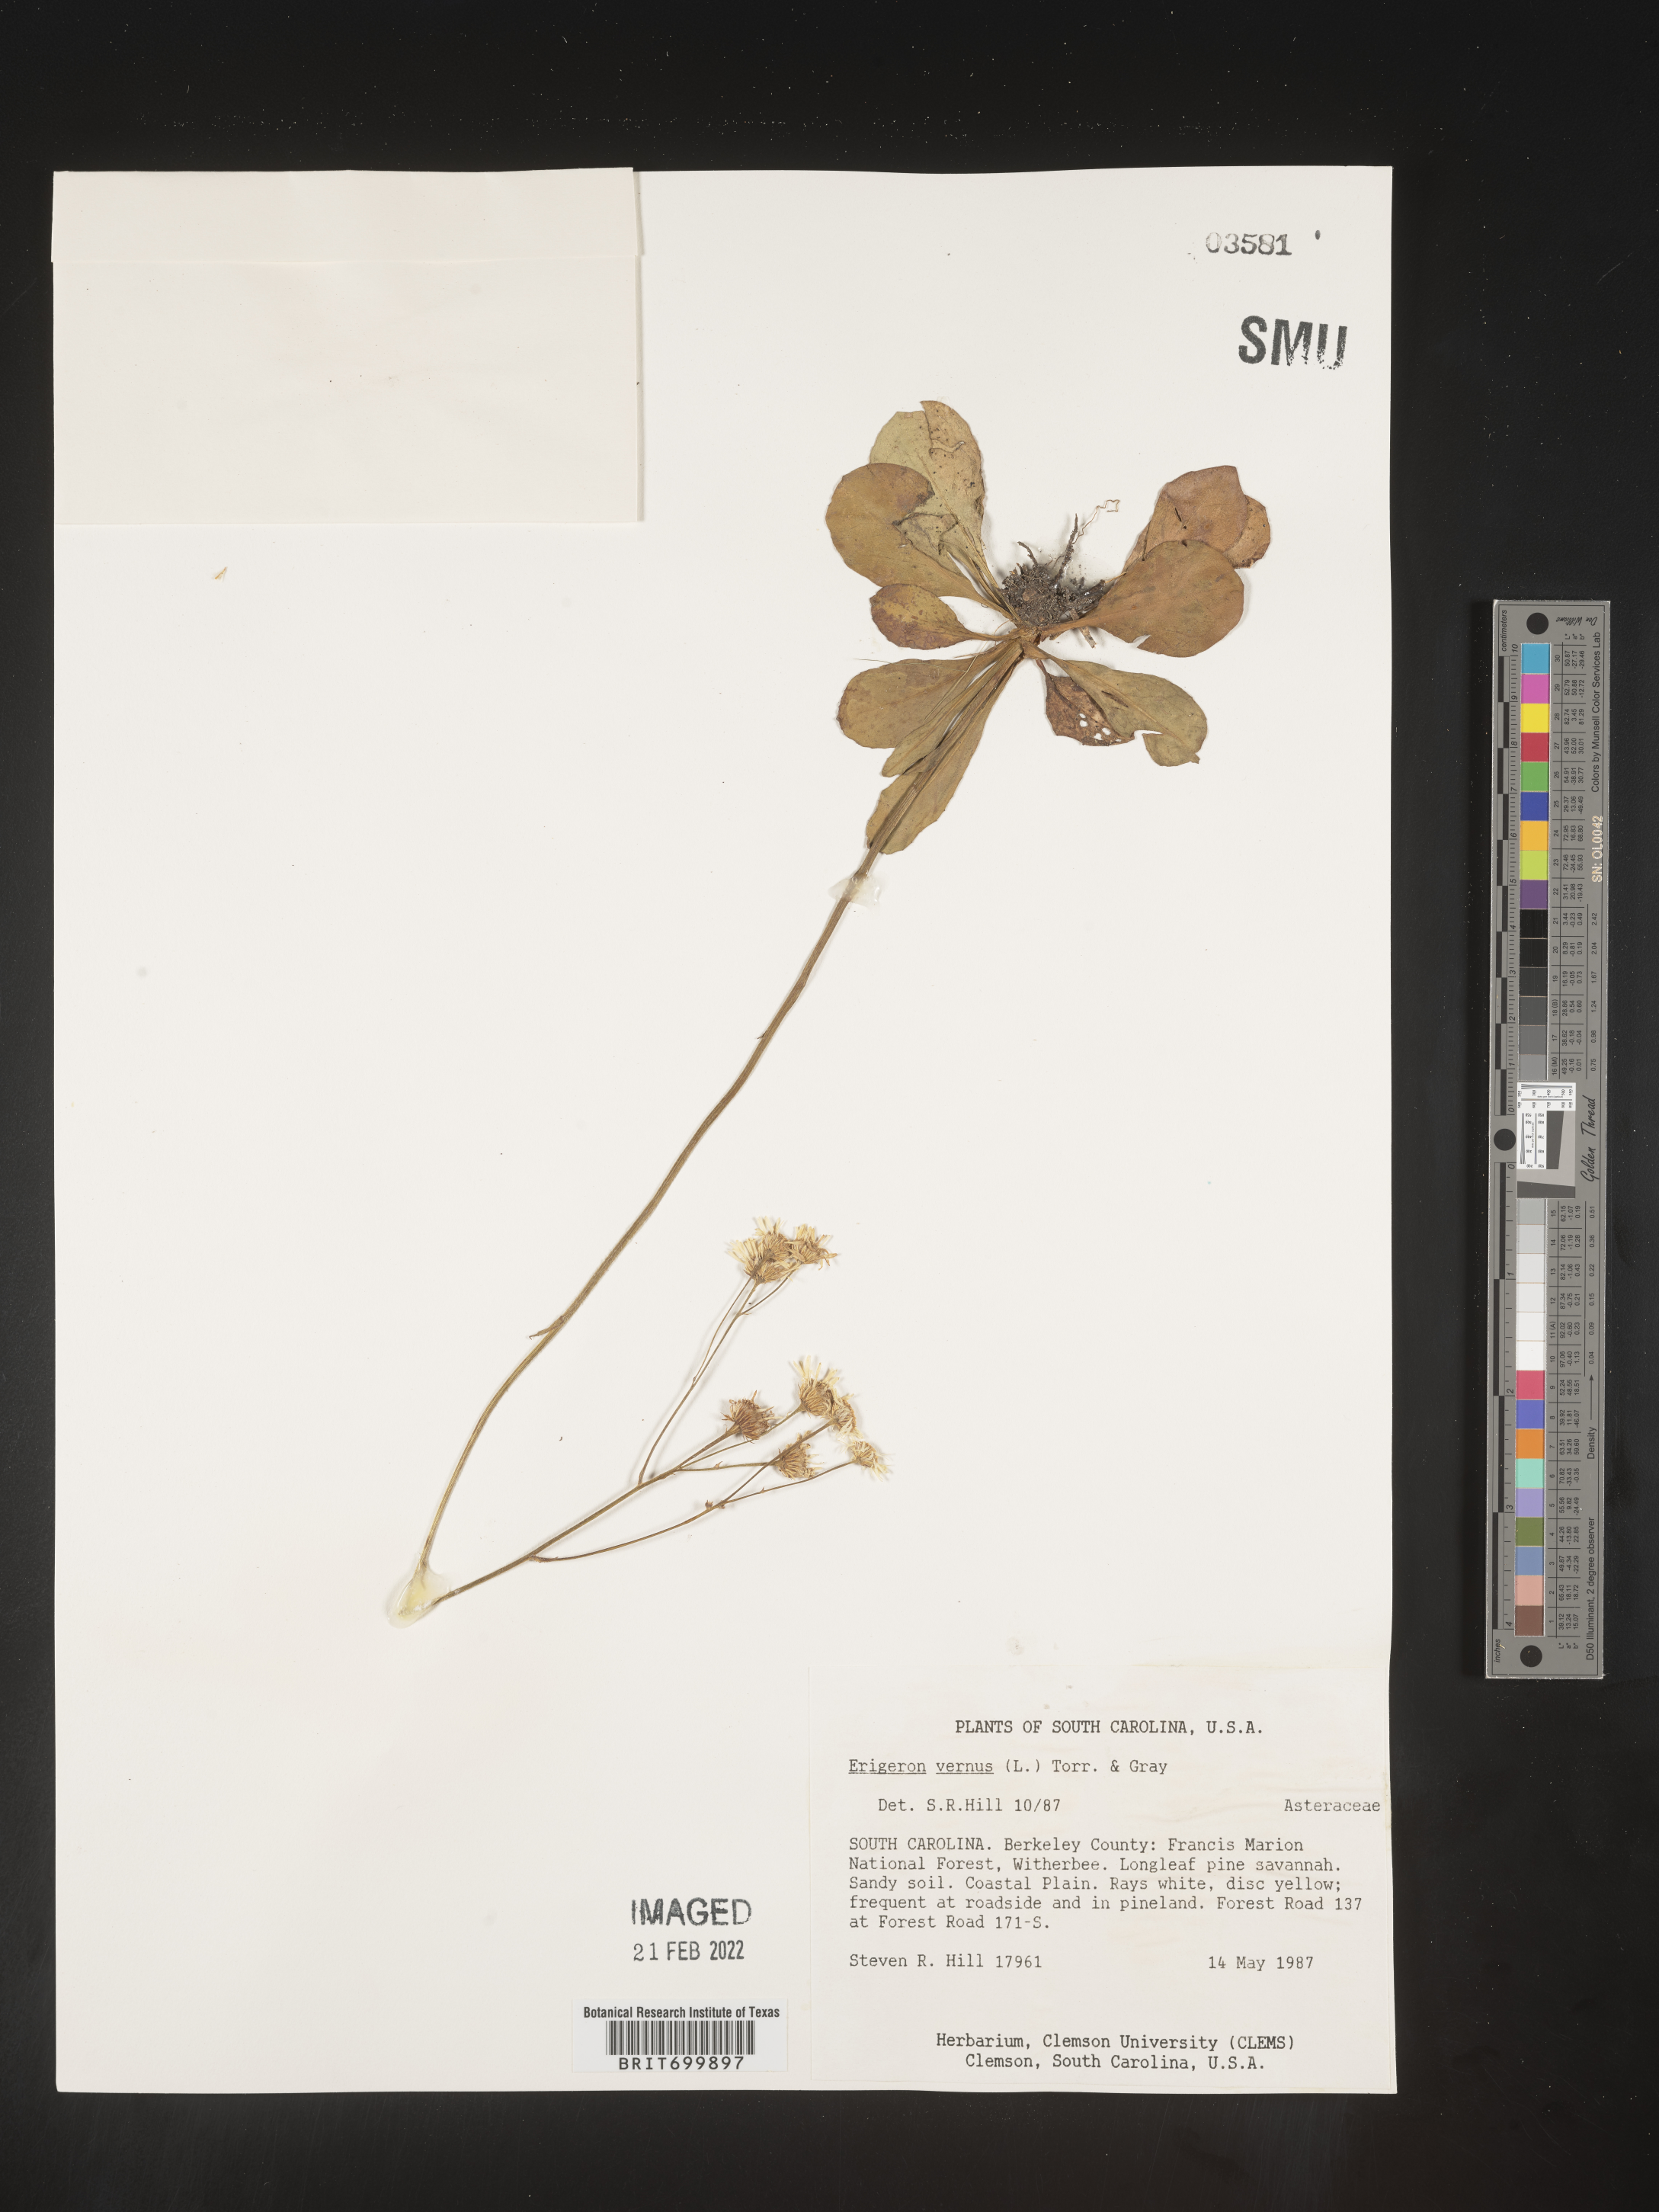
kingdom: Plantae
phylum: Tracheophyta
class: Magnoliopsida
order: Asterales
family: Asteraceae
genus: Erigeron
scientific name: Erigeron vernus
